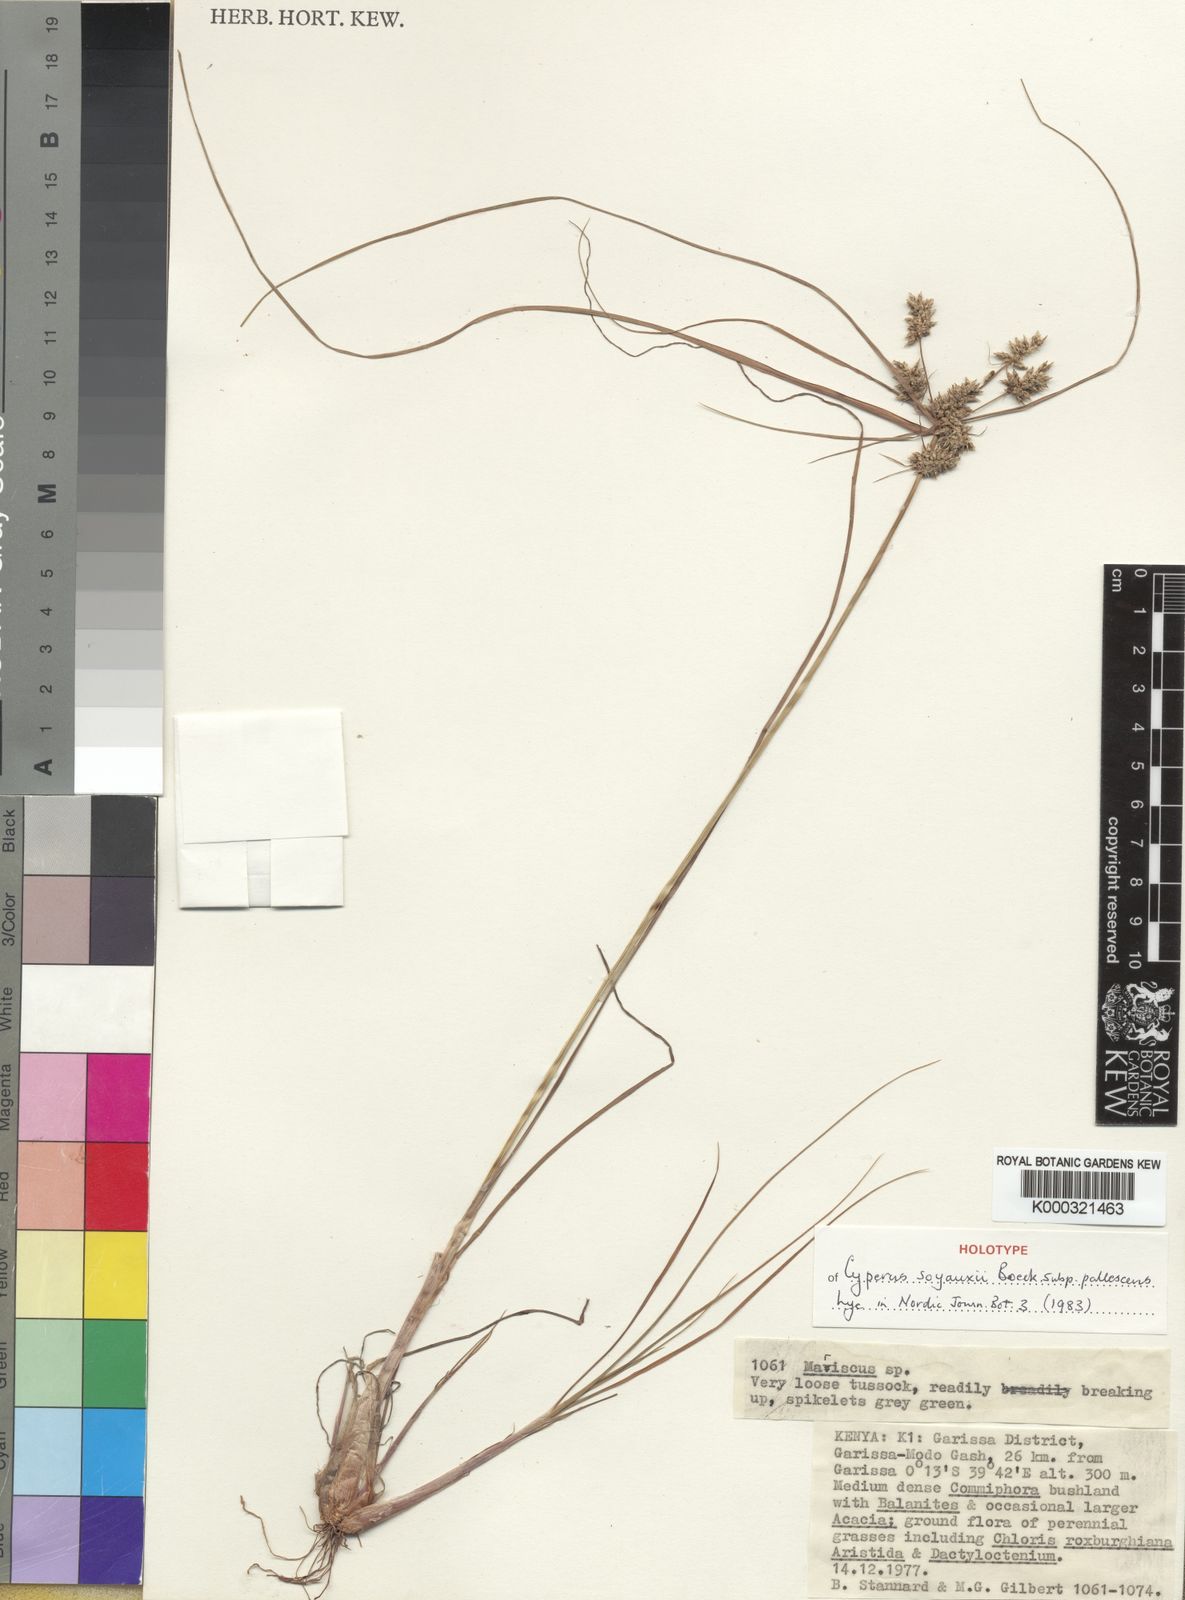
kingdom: Plantae
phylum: Tracheophyta
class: Liliopsida
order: Poales
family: Cyperaceae
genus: Cyperus
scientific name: Cyperus soyauxii
